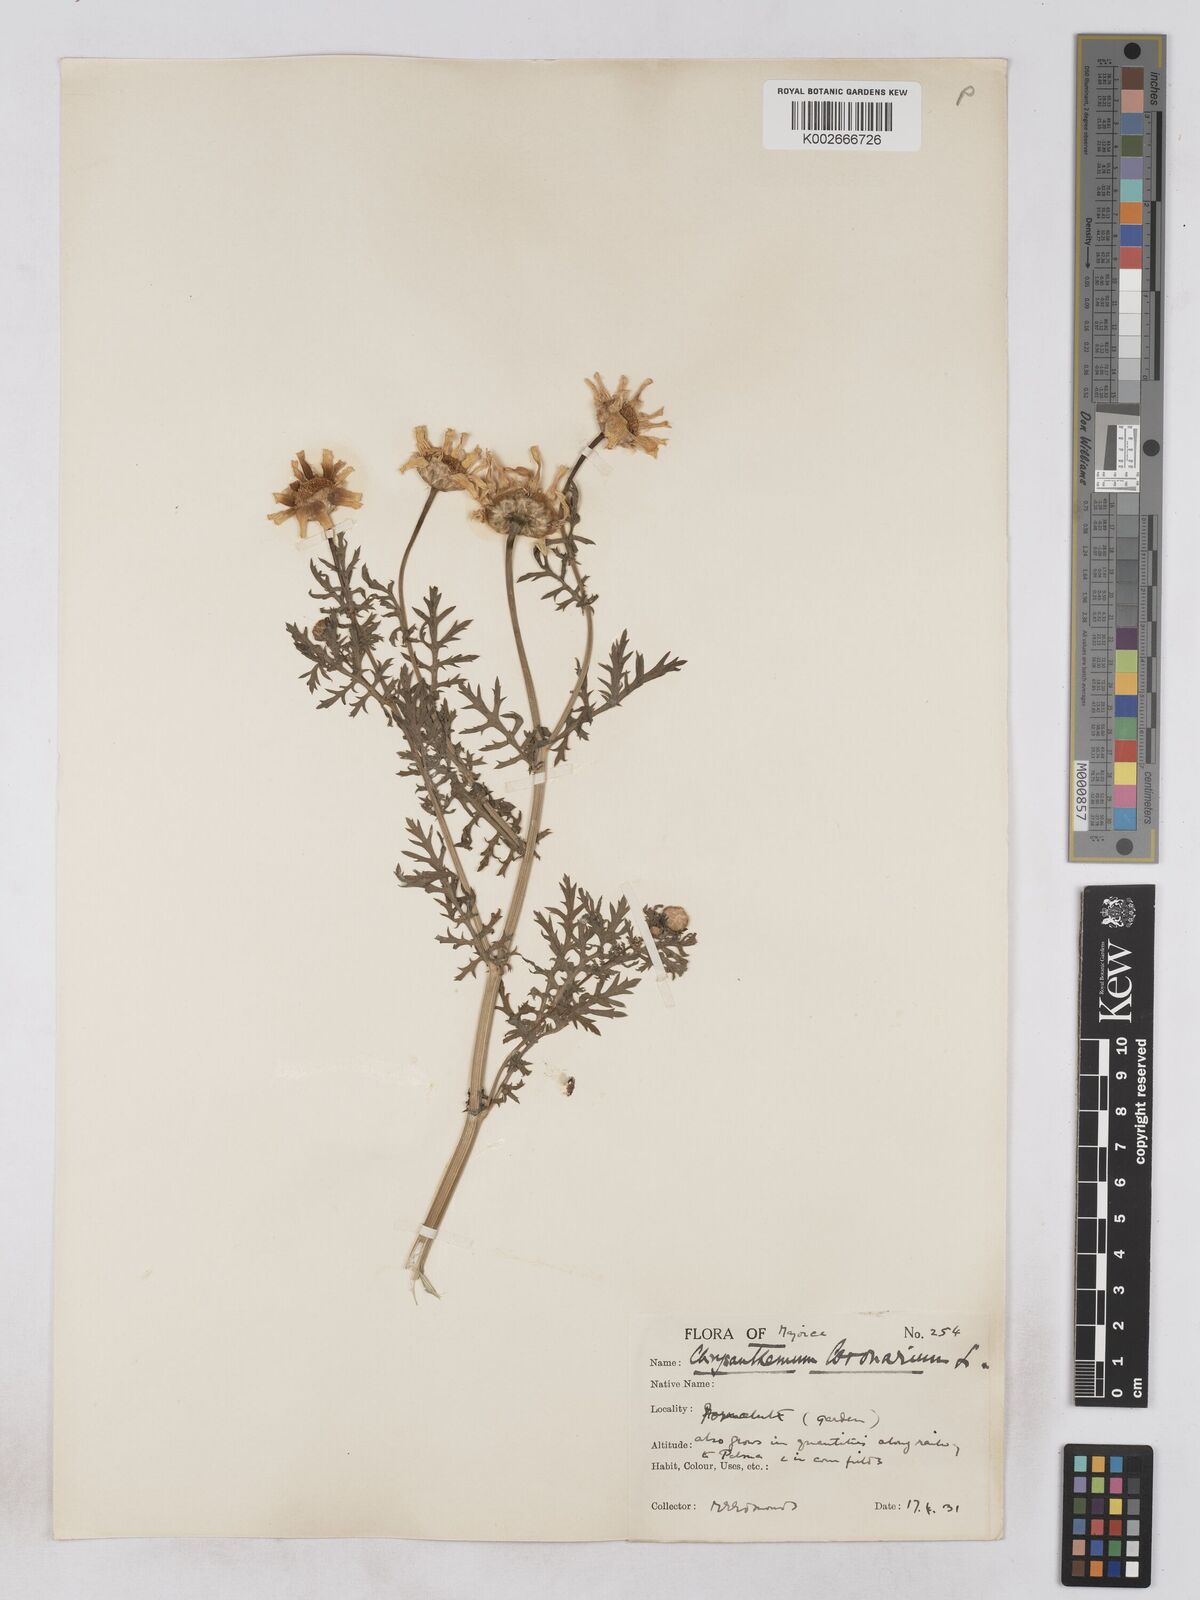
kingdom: Plantae
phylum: Tracheophyta
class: Magnoliopsida
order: Asterales
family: Asteraceae
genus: Glebionis
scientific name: Glebionis
